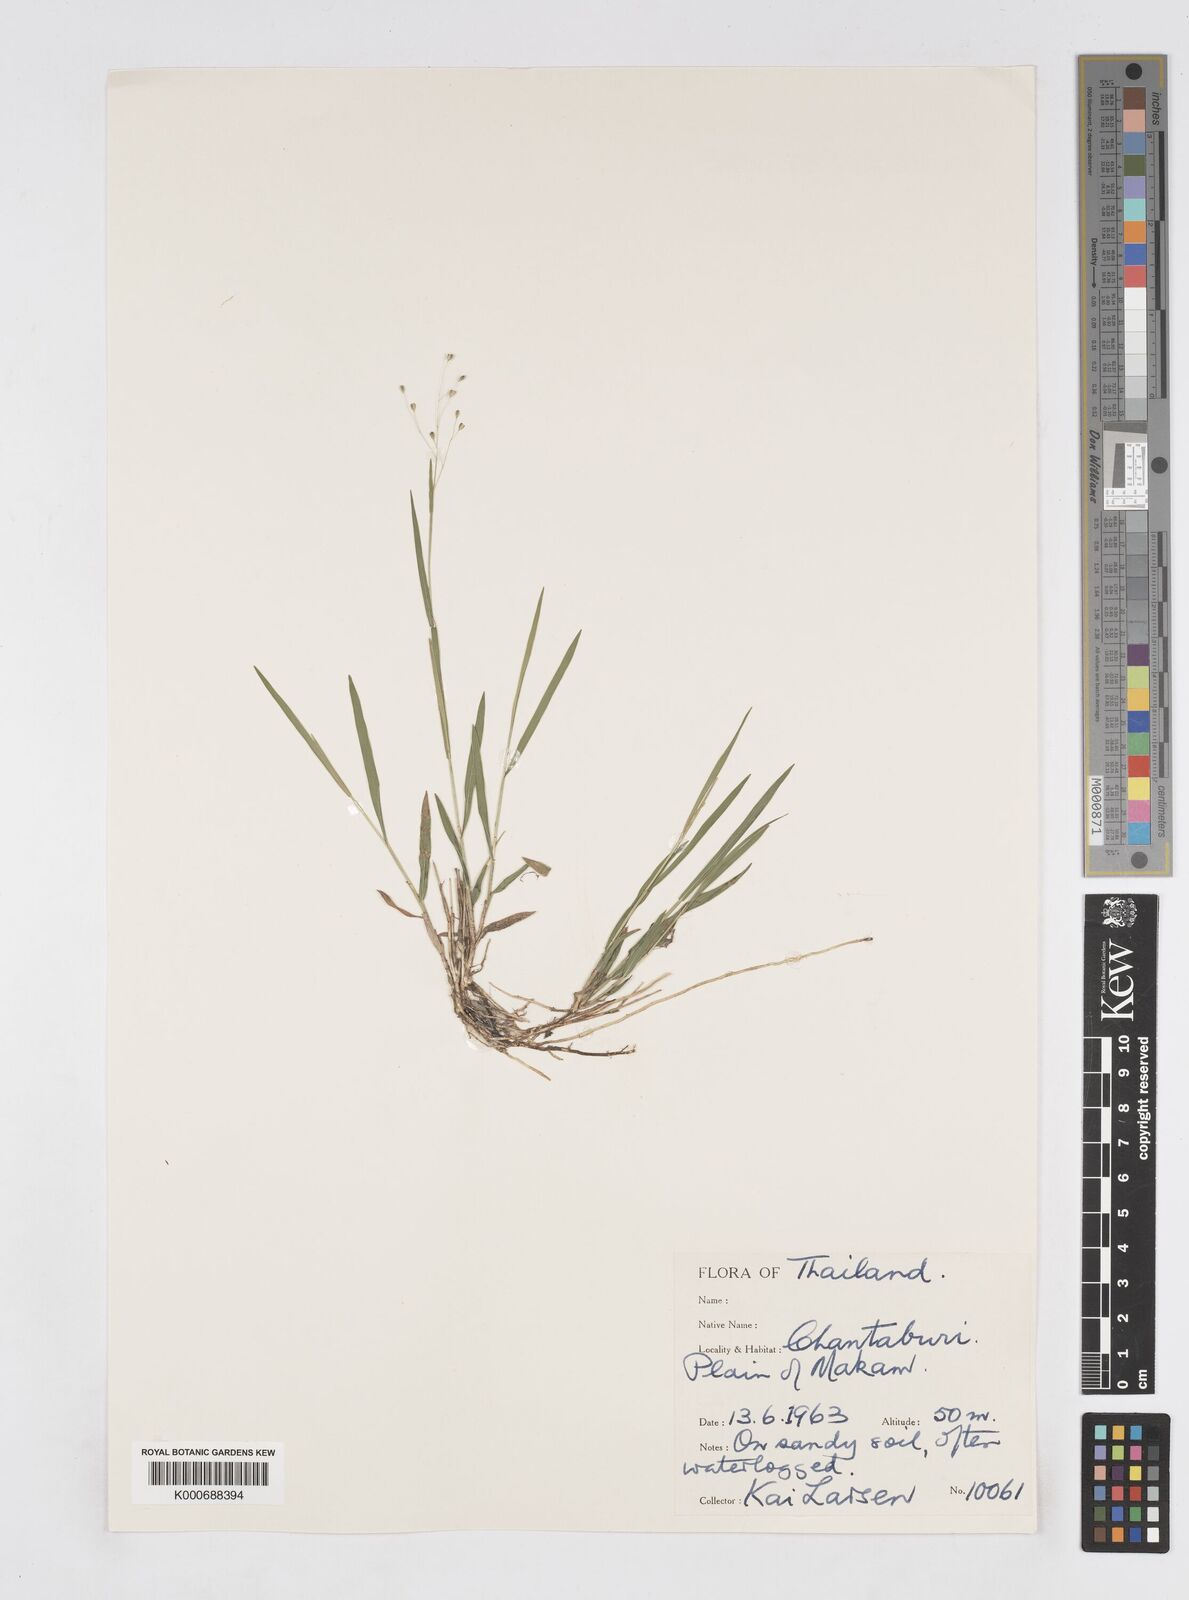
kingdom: Plantae
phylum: Tracheophyta
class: Liliopsida
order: Poales
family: Poaceae
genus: Isachne
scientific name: Isachne puberula
